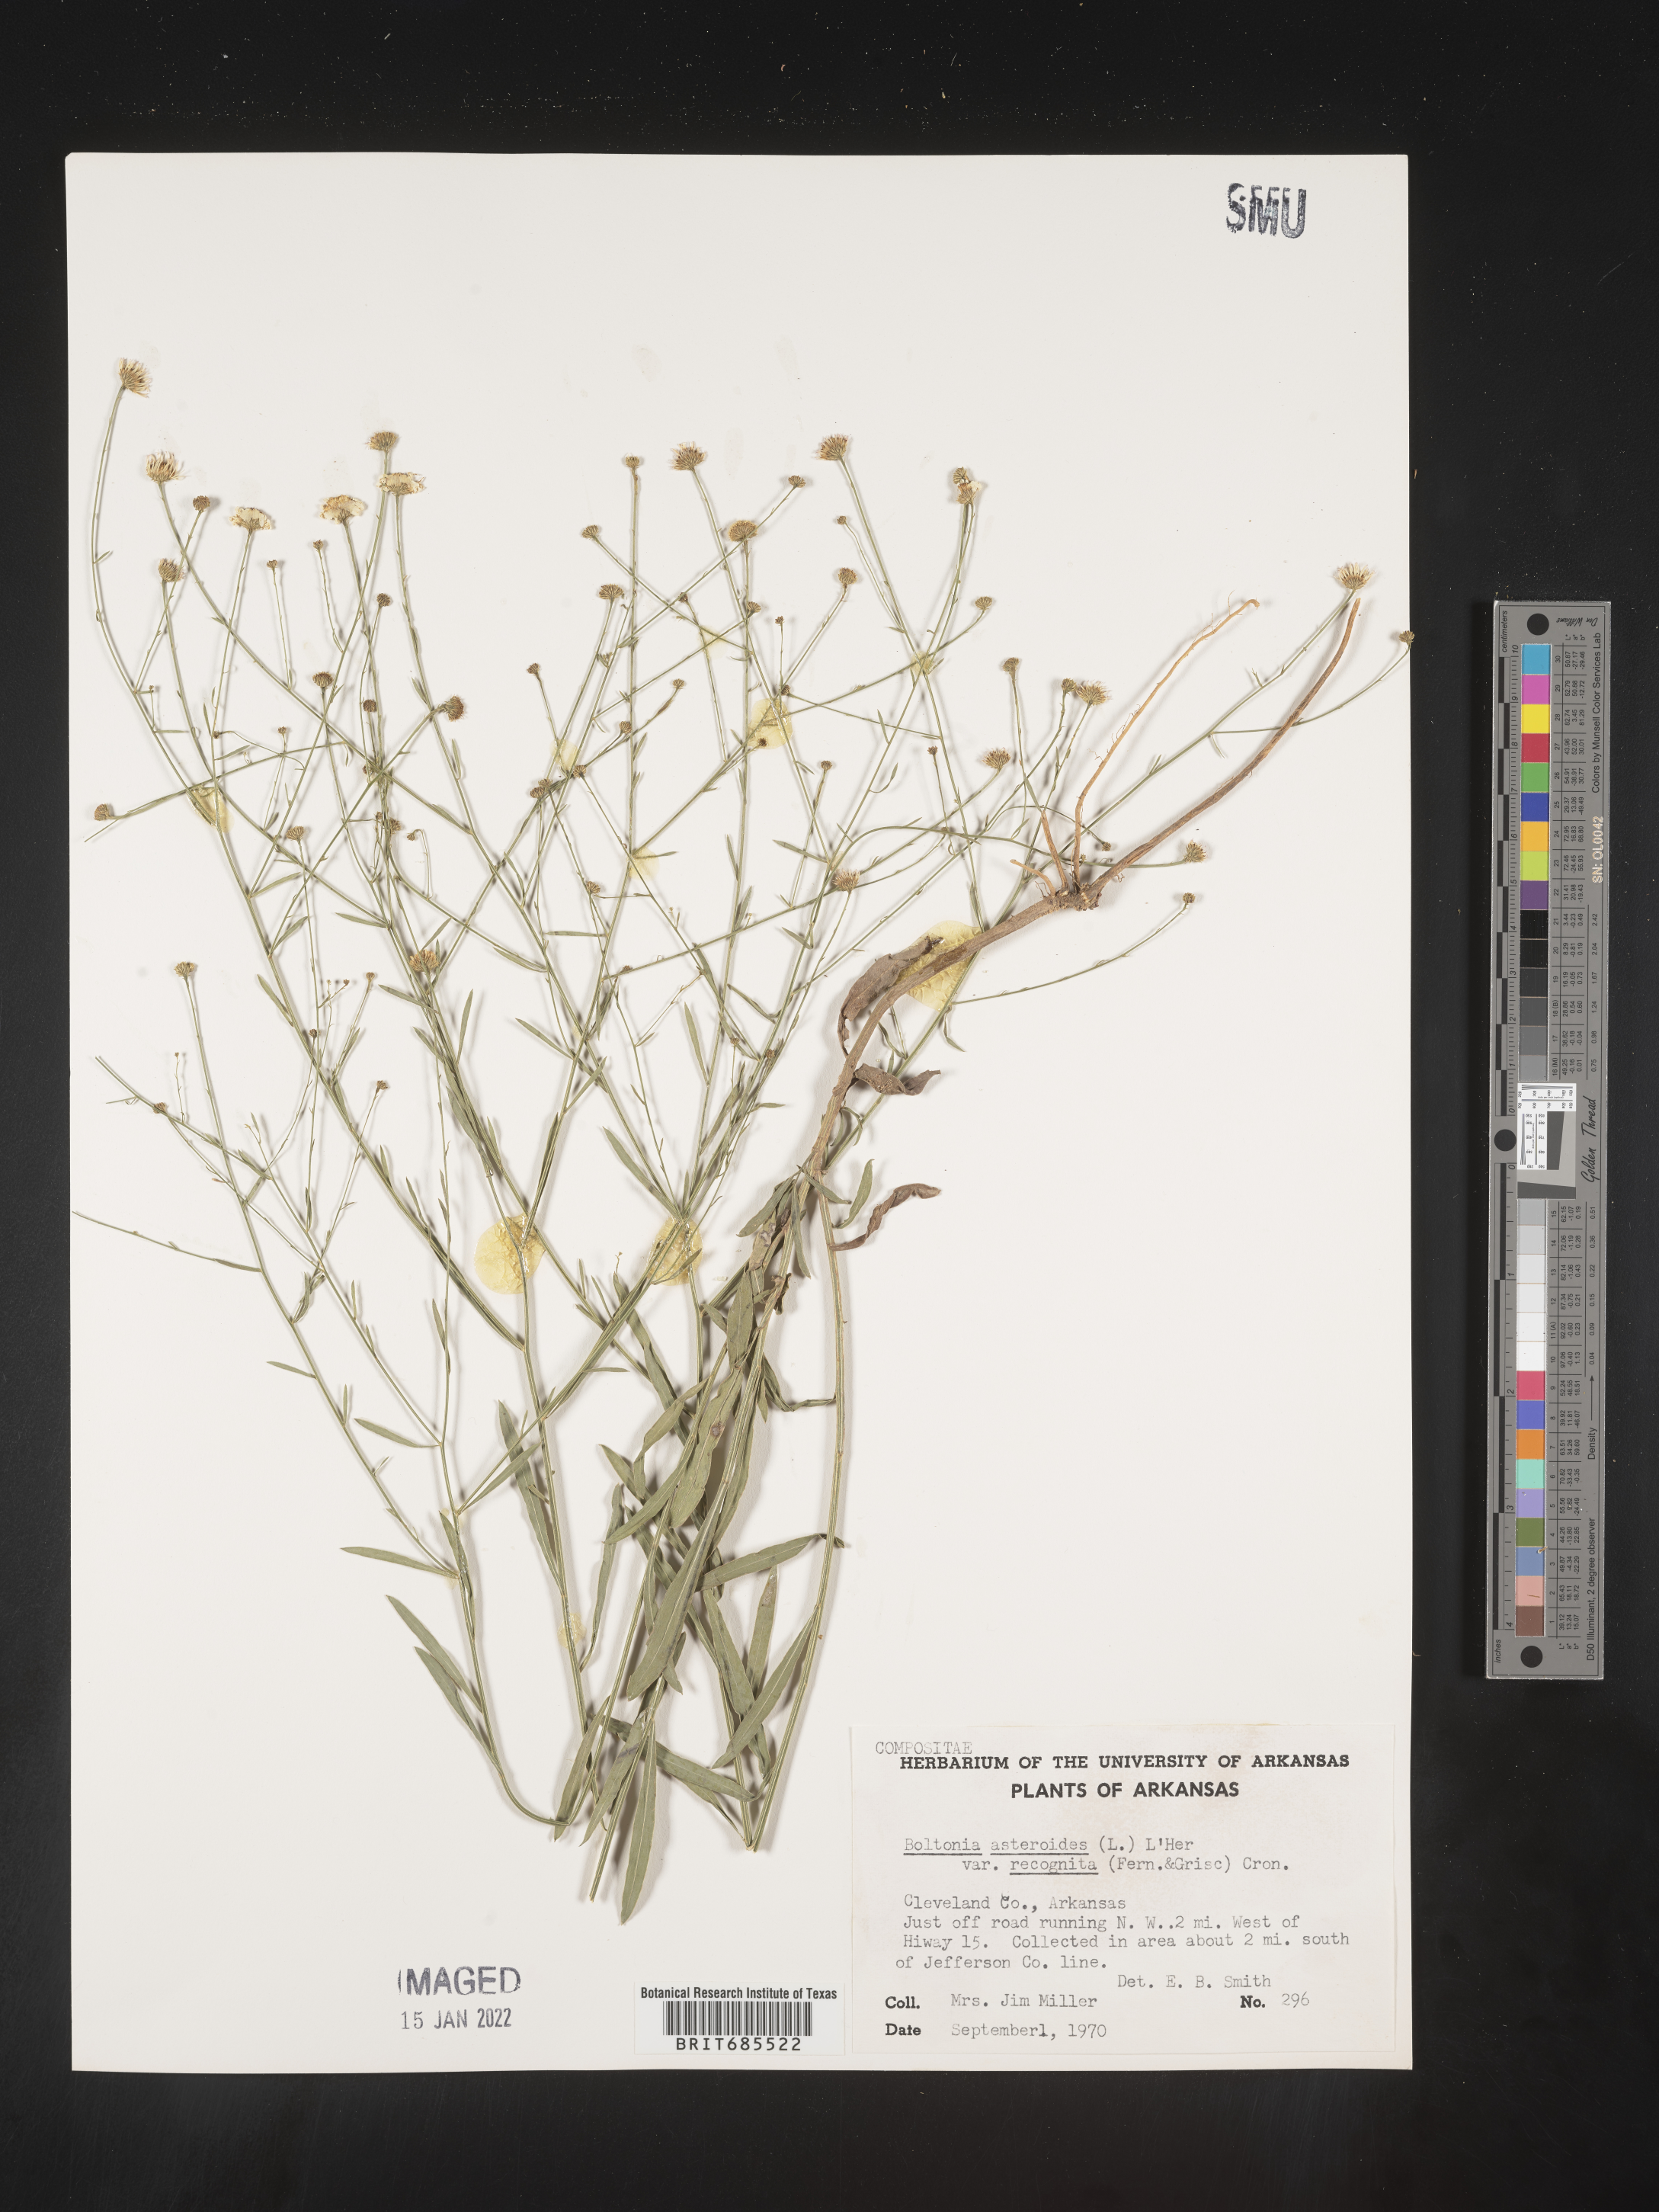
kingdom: Plantae
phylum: Tracheophyta
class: Magnoliopsida
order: Asterales
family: Asteraceae
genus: Boltonia
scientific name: Boltonia asteroides
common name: False chamomile
